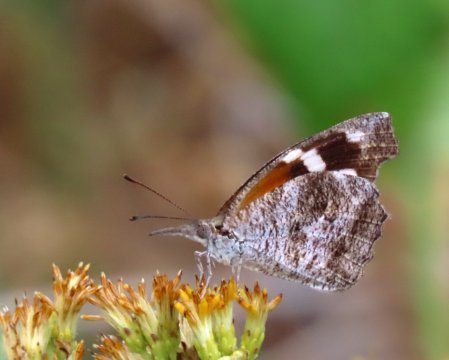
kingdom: Animalia
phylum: Arthropoda
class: Insecta
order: Lepidoptera
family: Nymphalidae
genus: Libytheana
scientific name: Libytheana carinenta
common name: American Snout
